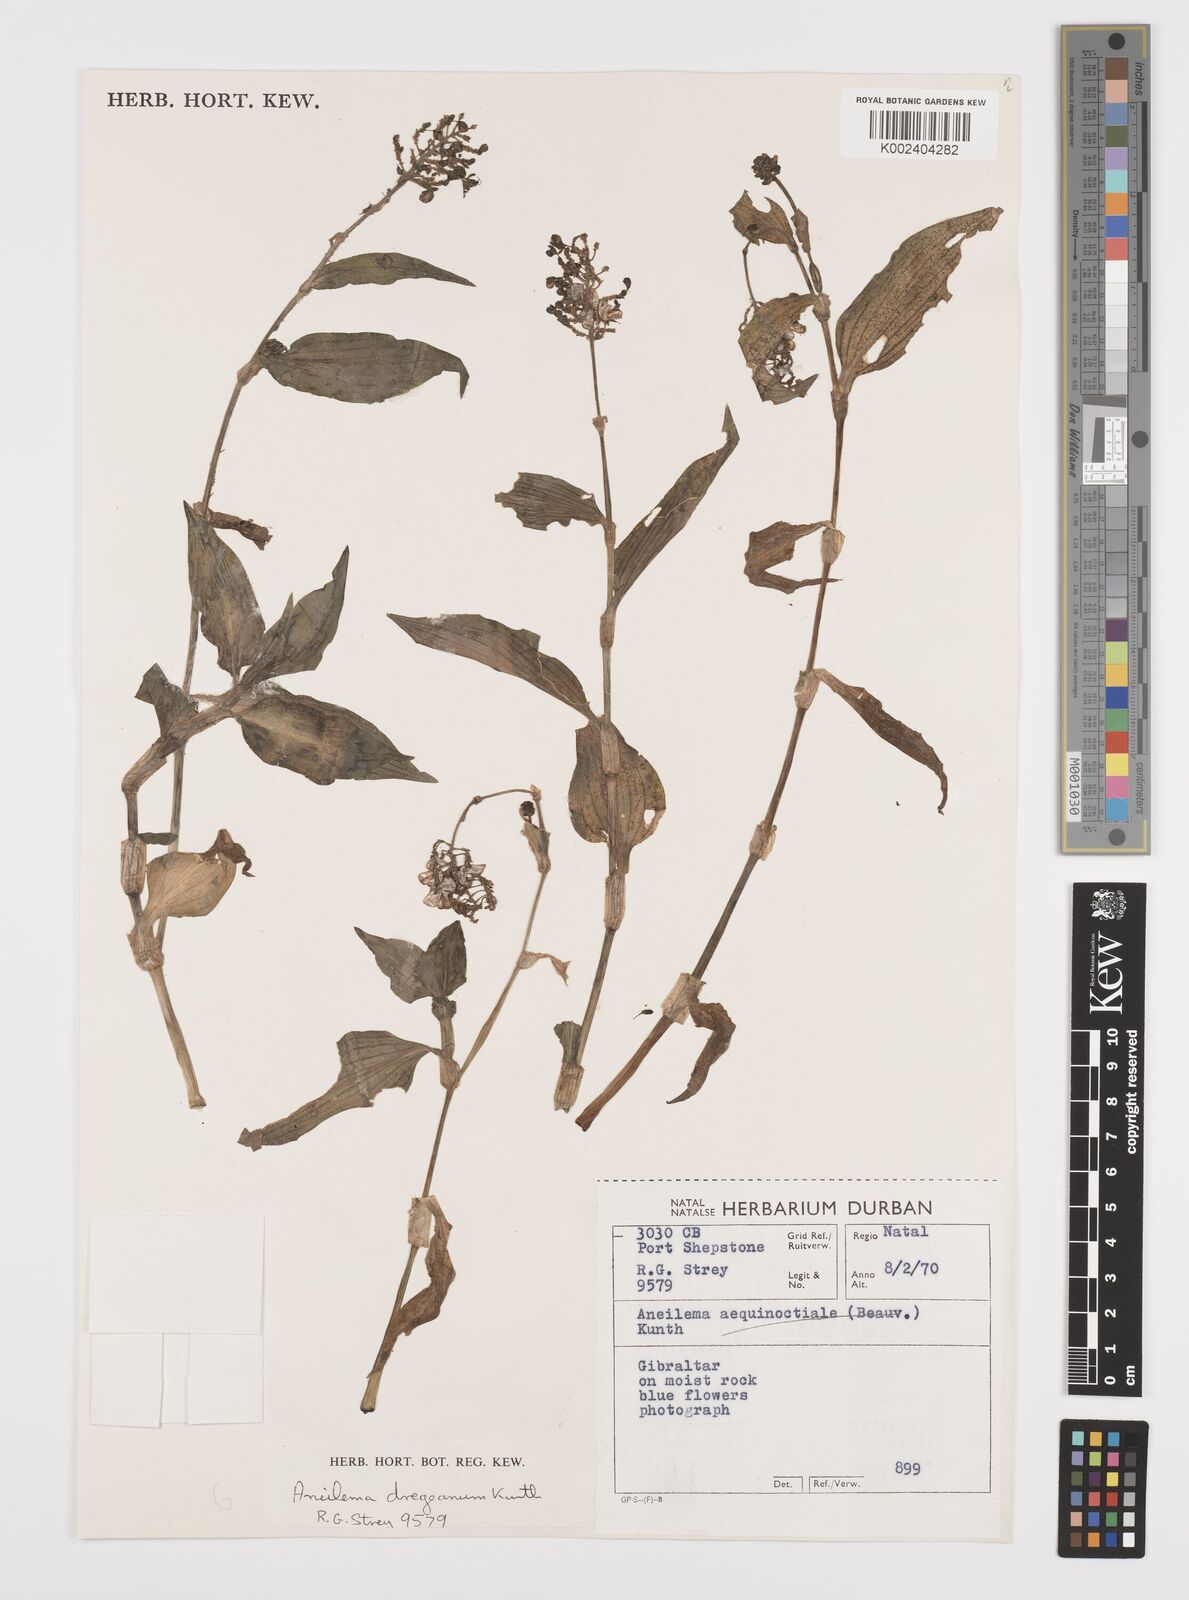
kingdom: Plantae
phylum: Tracheophyta
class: Liliopsida
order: Commelinales
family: Commelinaceae
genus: Aneilema
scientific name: Aneilema dregeanum
